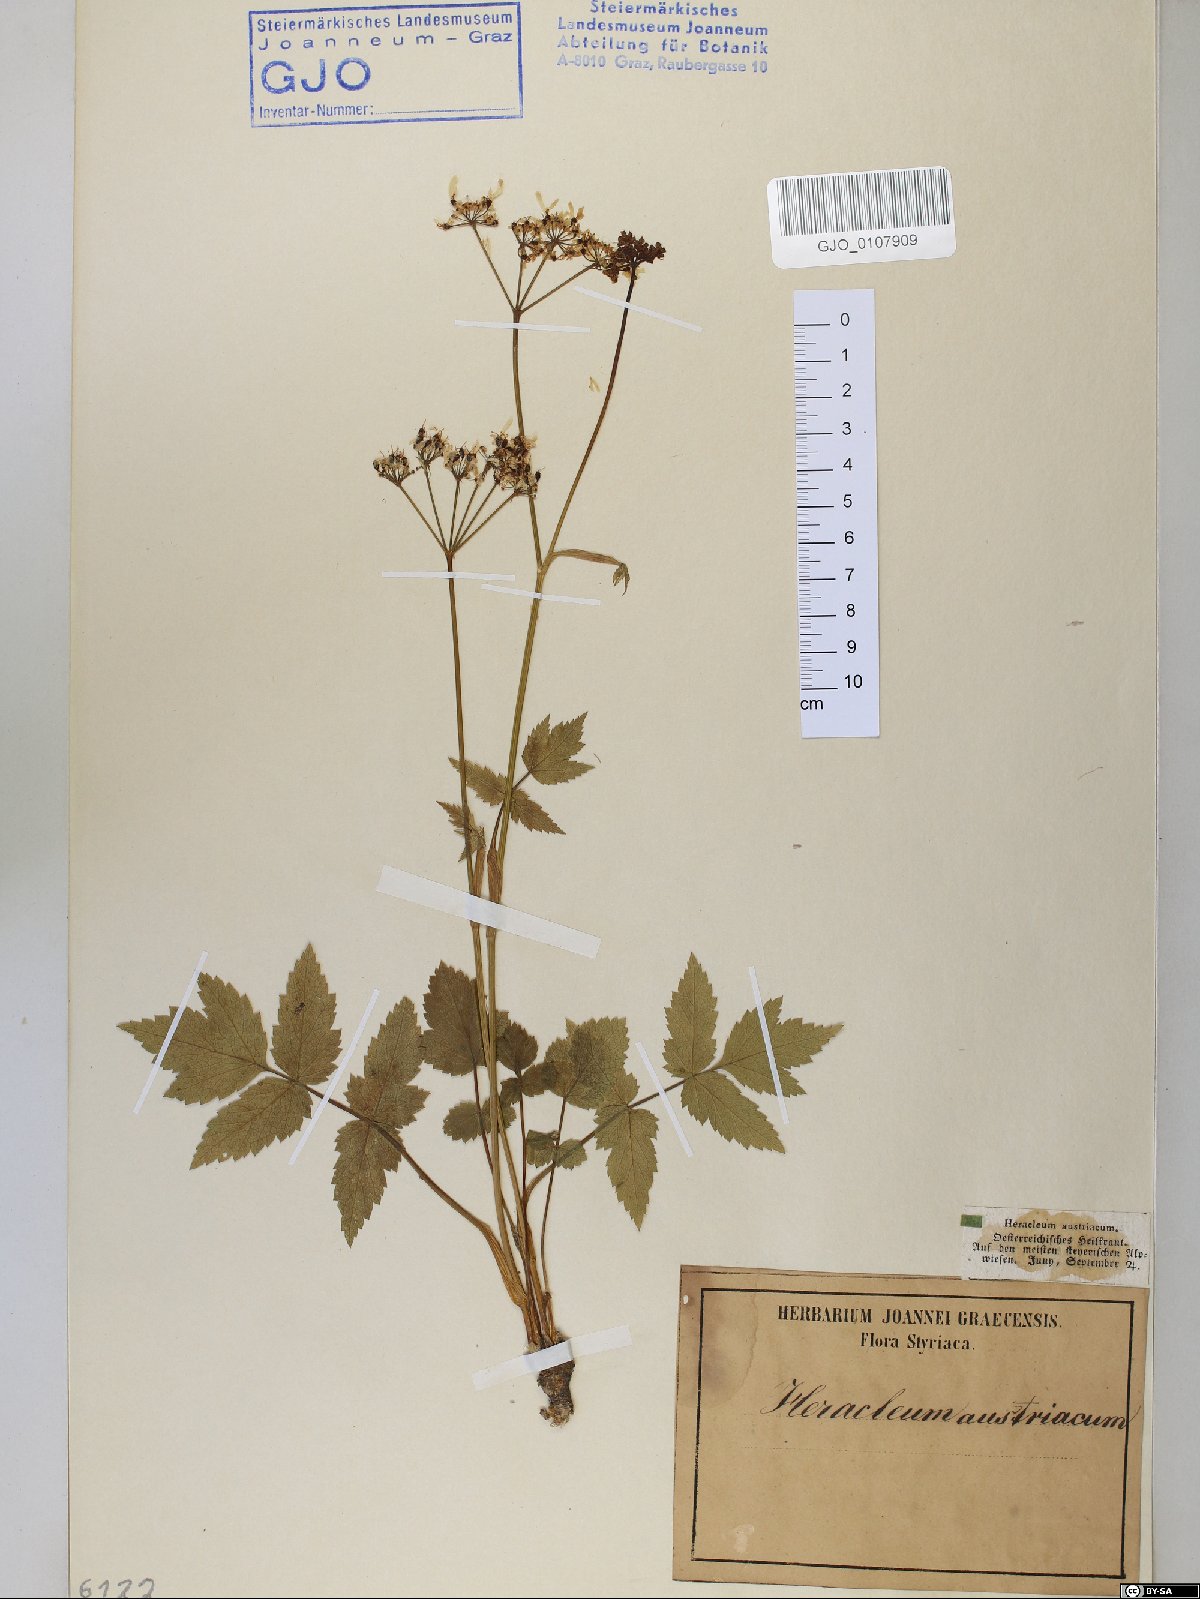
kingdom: Plantae
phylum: Tracheophyta
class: Magnoliopsida
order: Apiales
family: Apiaceae
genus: Heracleum
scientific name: Heracleum austriacum
